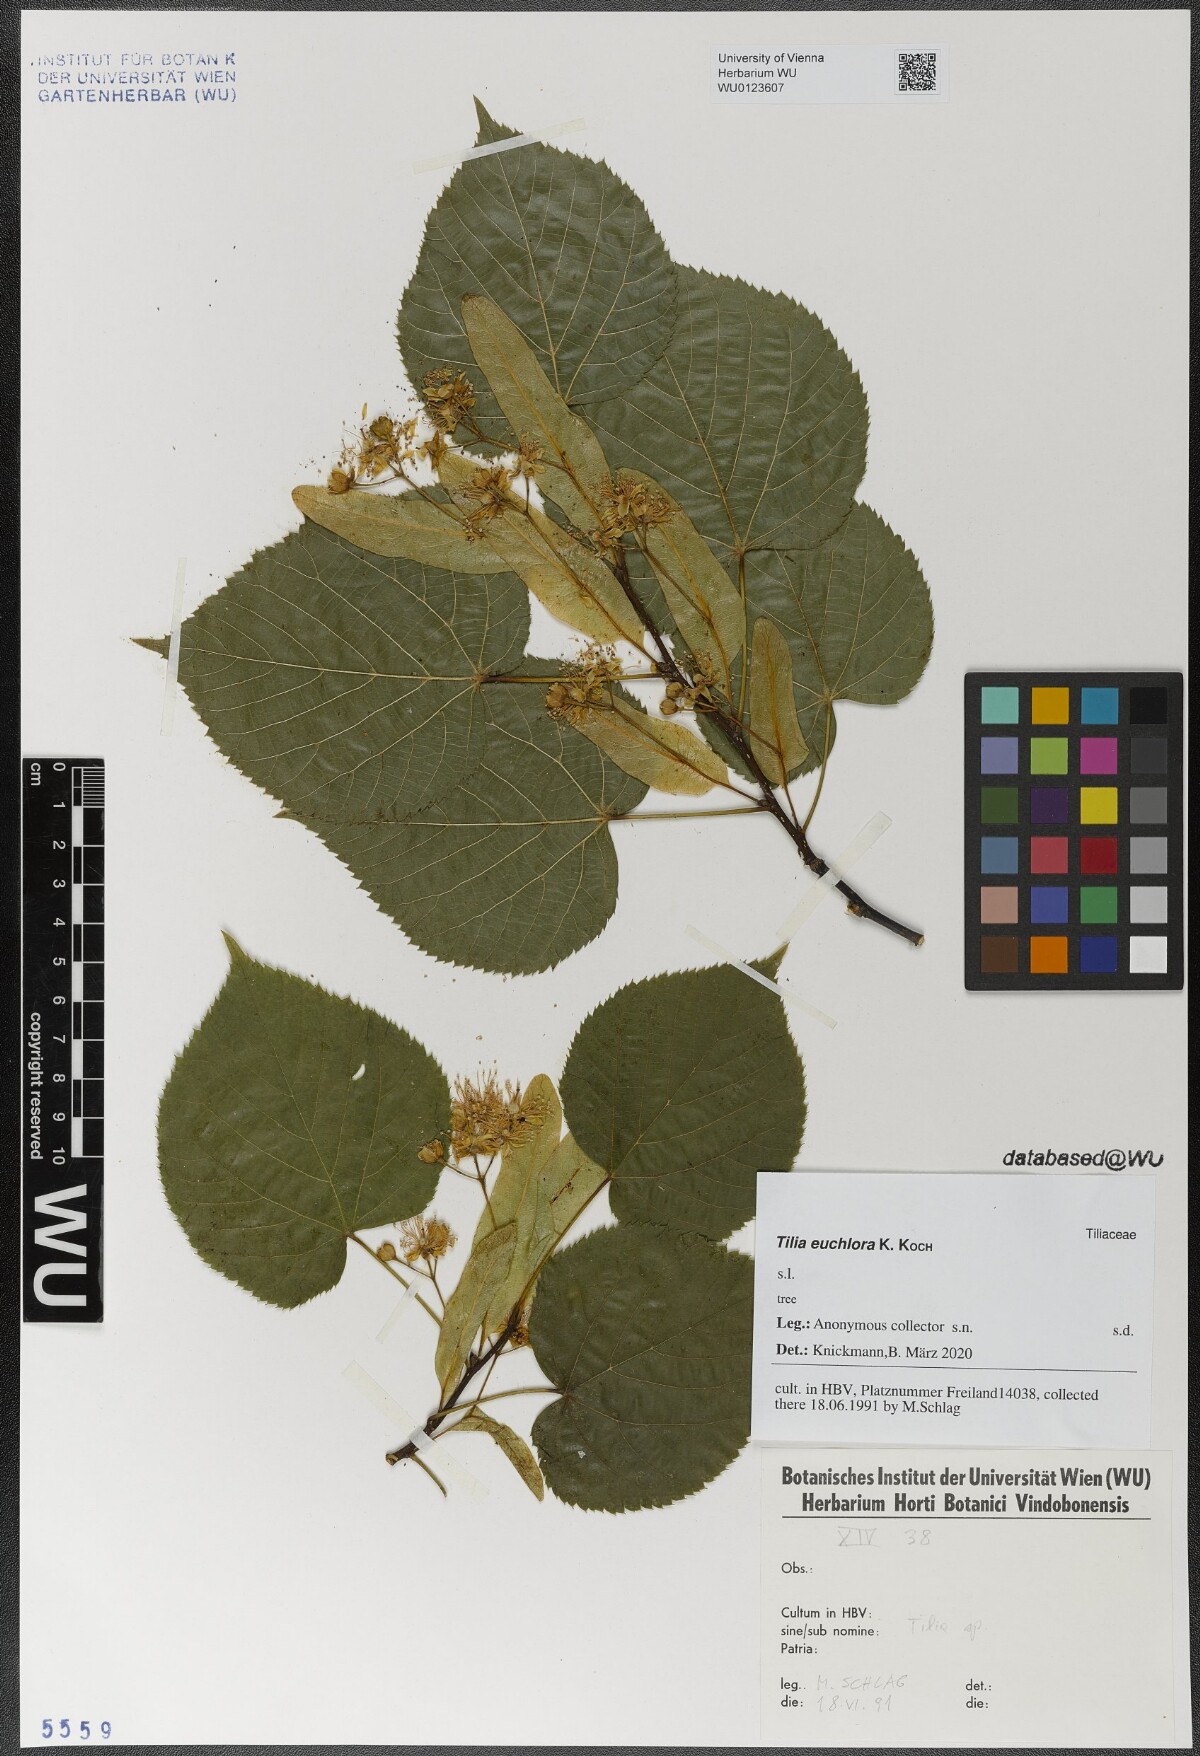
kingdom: Plantae
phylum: Tracheophyta
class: Magnoliopsida
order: Malvales
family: Malvaceae
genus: Tilia
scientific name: Tilia euchlora
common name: Caucasian lime
